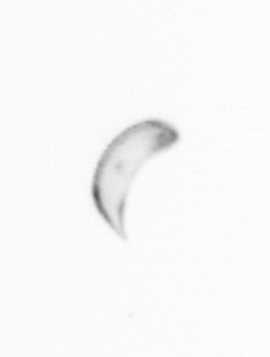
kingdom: Chromista
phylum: Ochrophyta
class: Bacillariophyceae
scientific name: Bacillariophyceae
